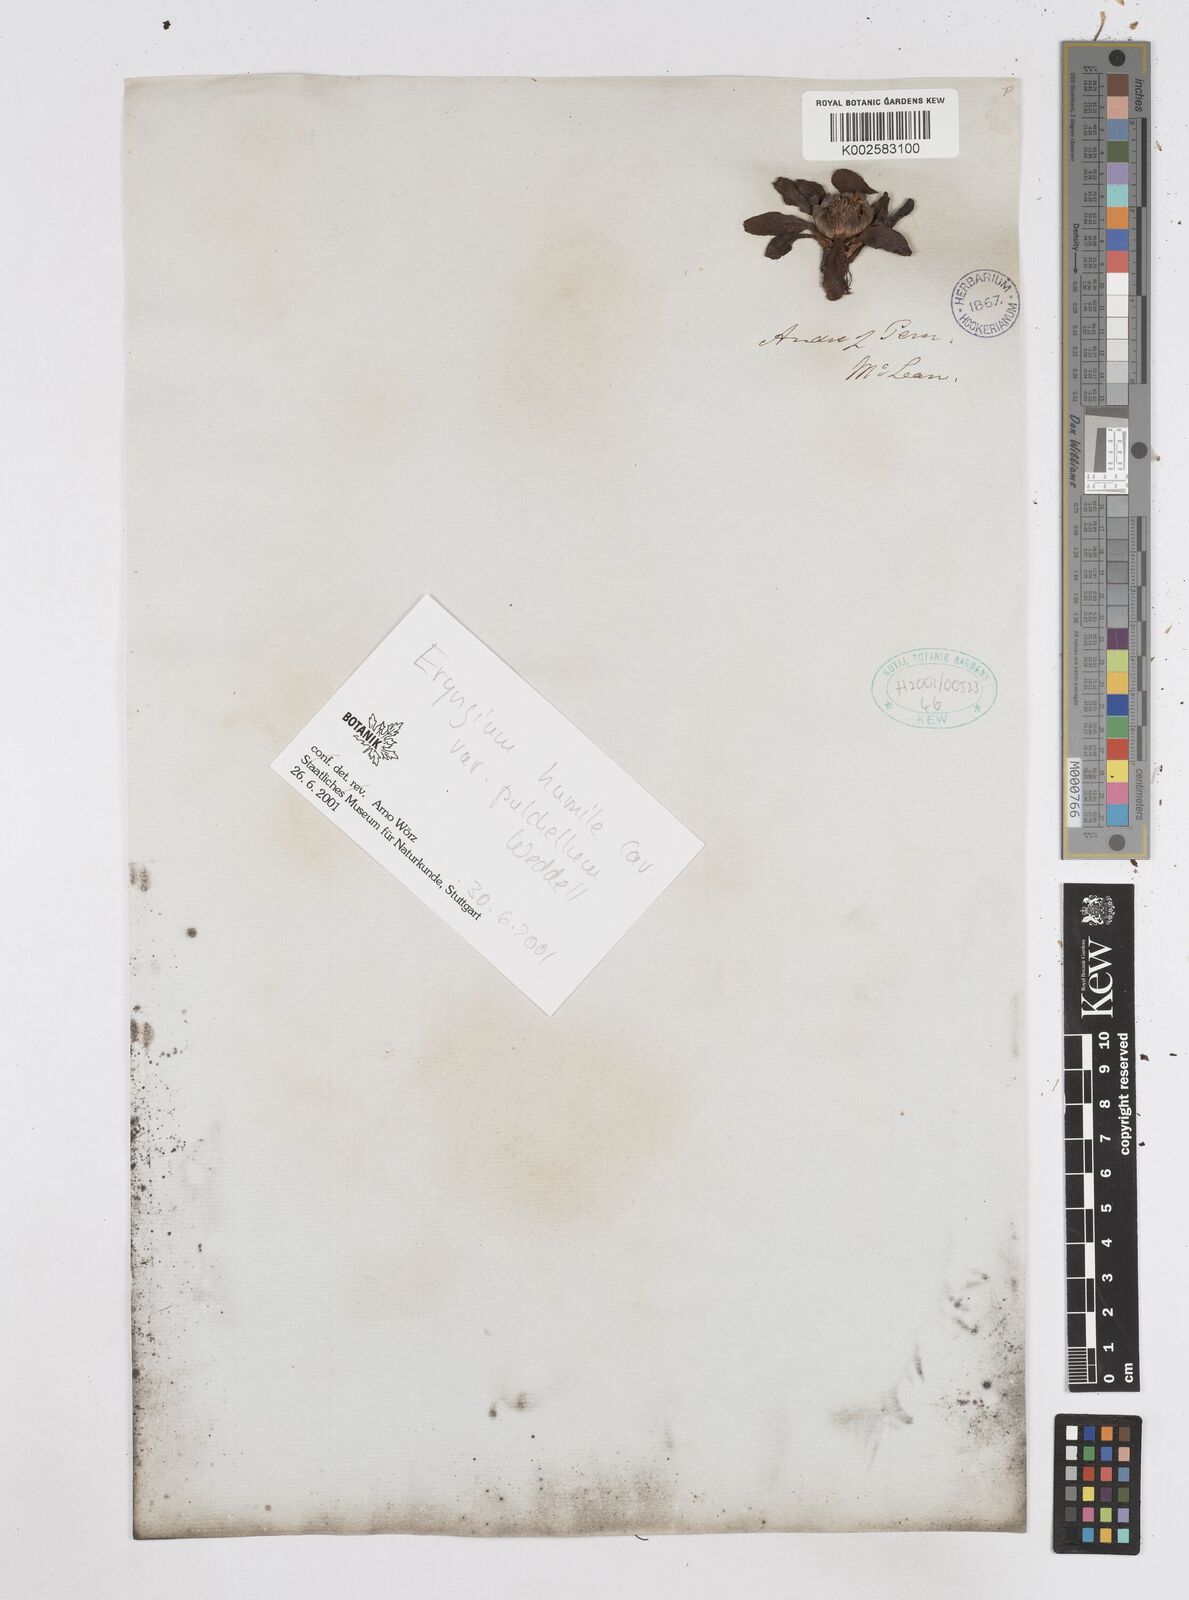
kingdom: Plantae
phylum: Tracheophyta
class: Magnoliopsida
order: Apiales
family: Apiaceae
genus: Eryngium
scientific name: Eryngium humile
